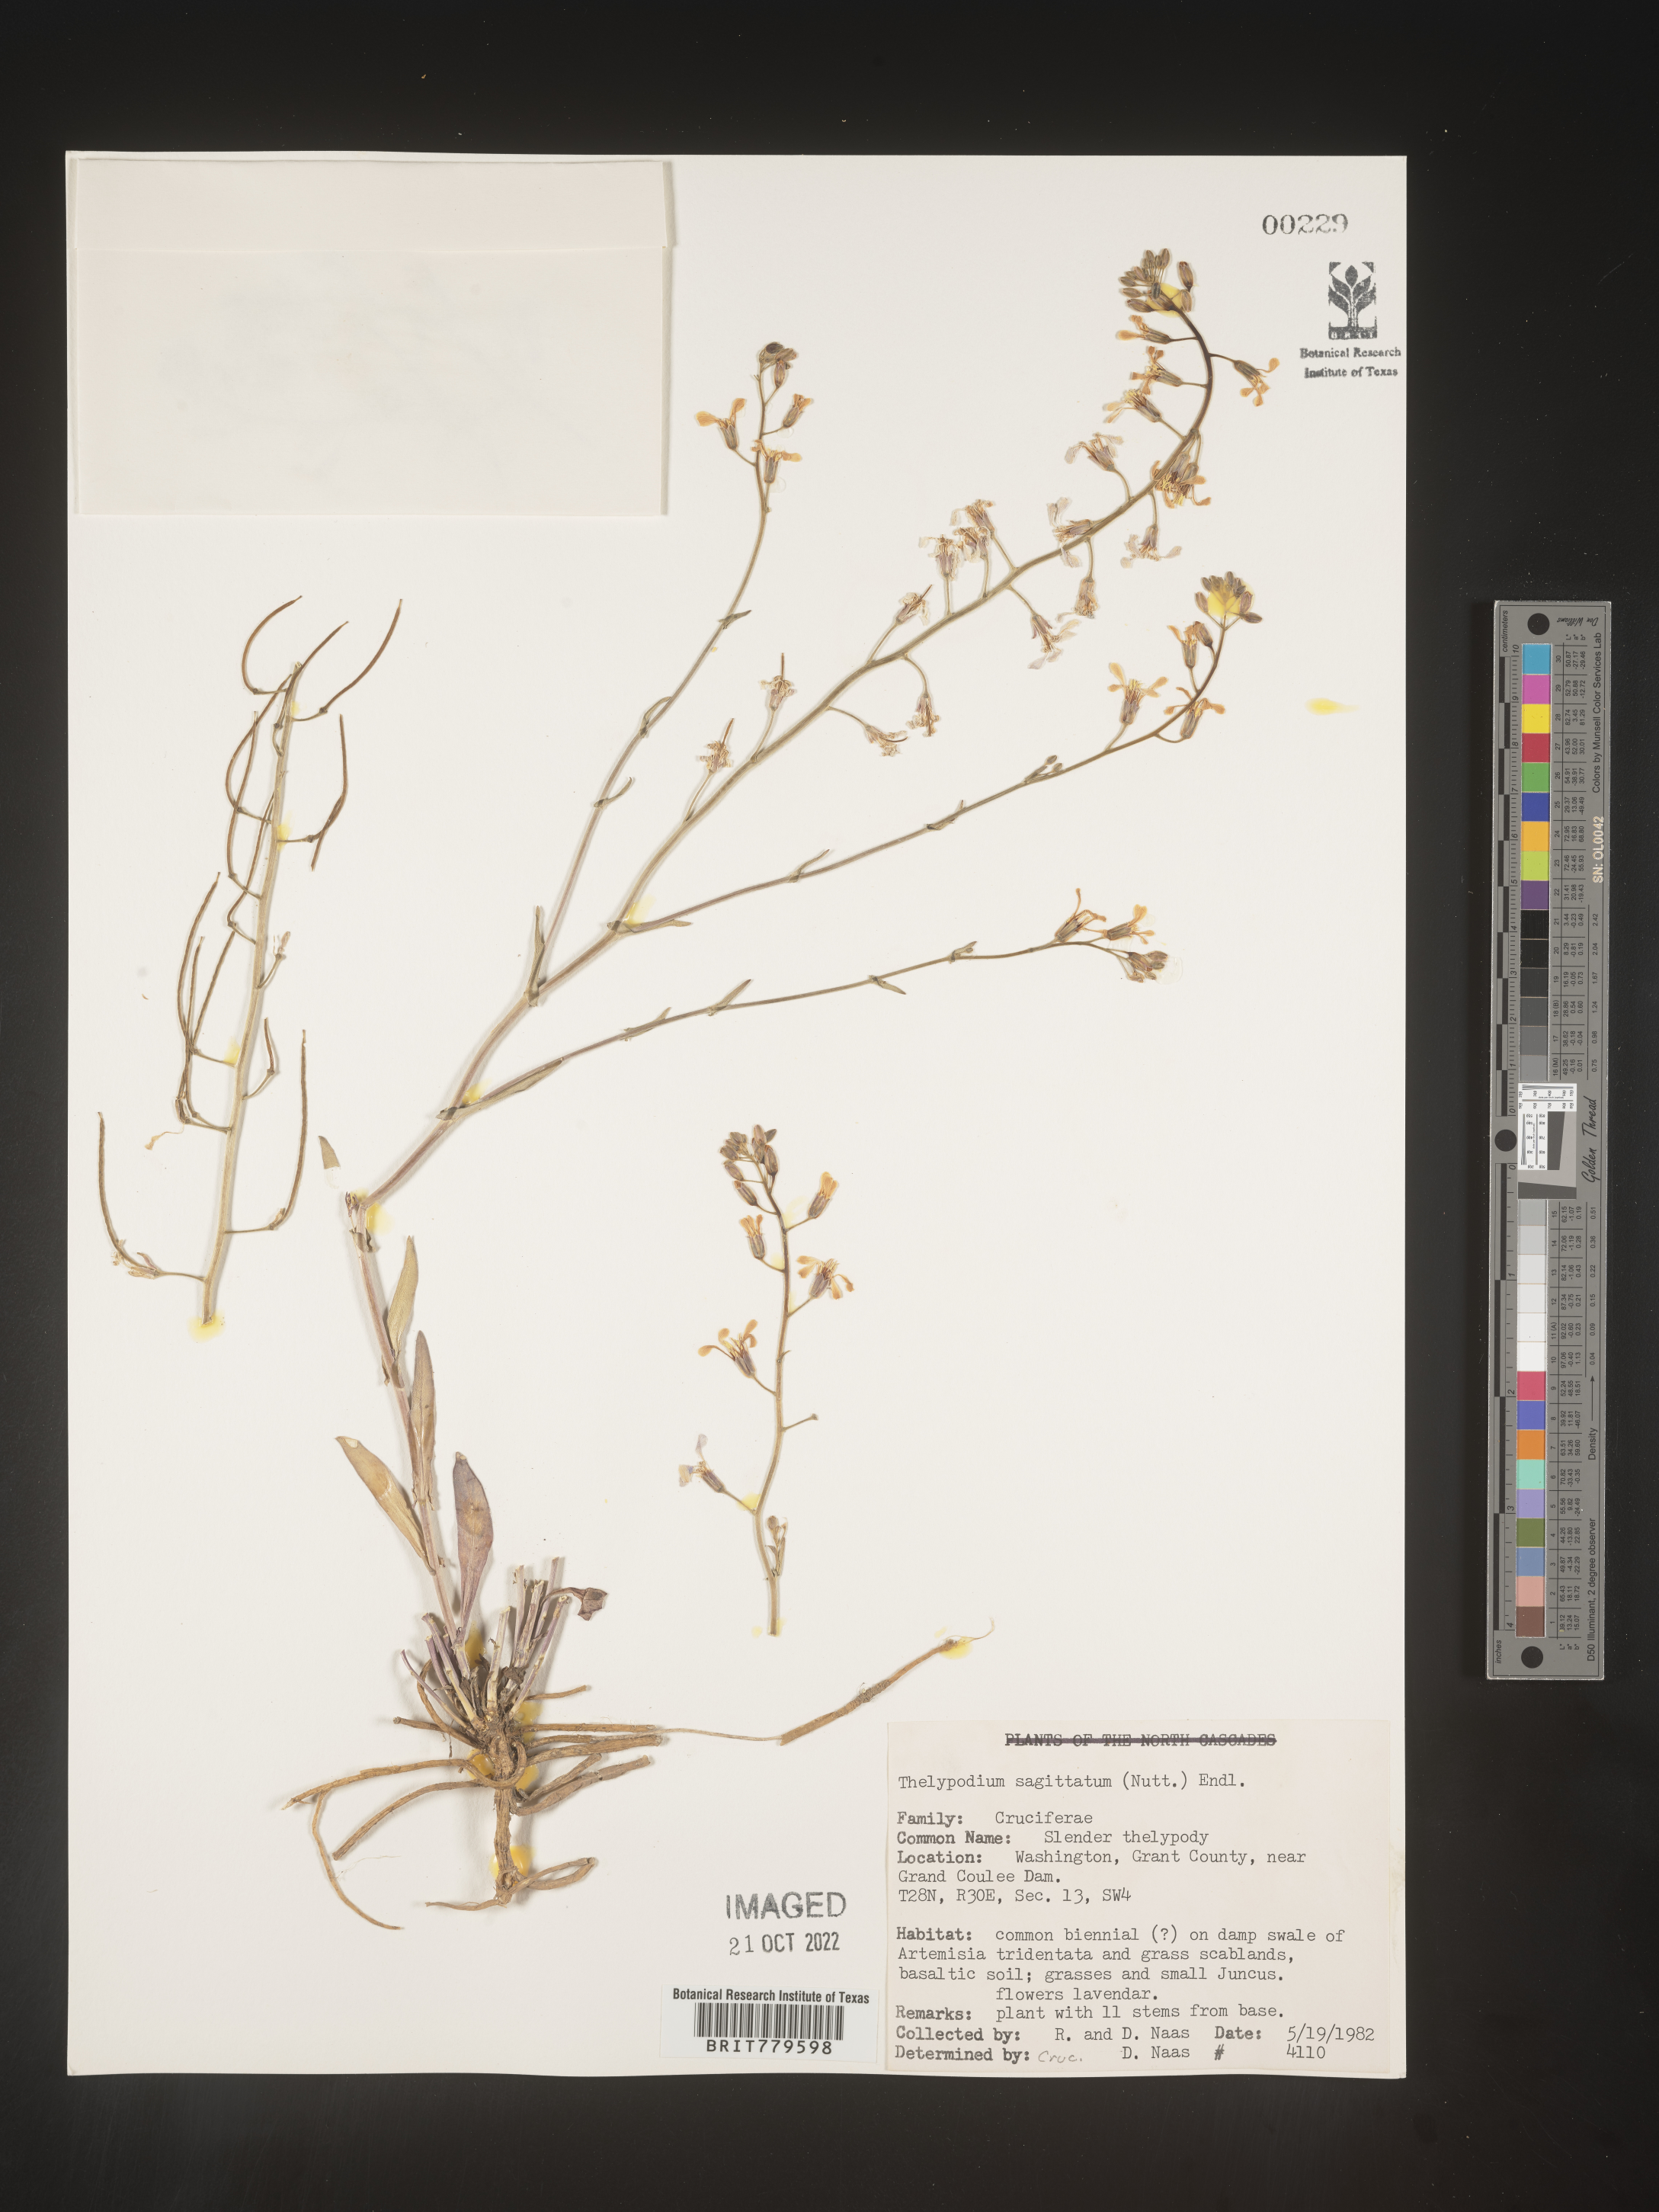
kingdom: Plantae
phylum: Tracheophyta
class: Magnoliopsida
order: Brassicales
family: Brassicaceae
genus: Thelypodium
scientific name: Thelypodium
